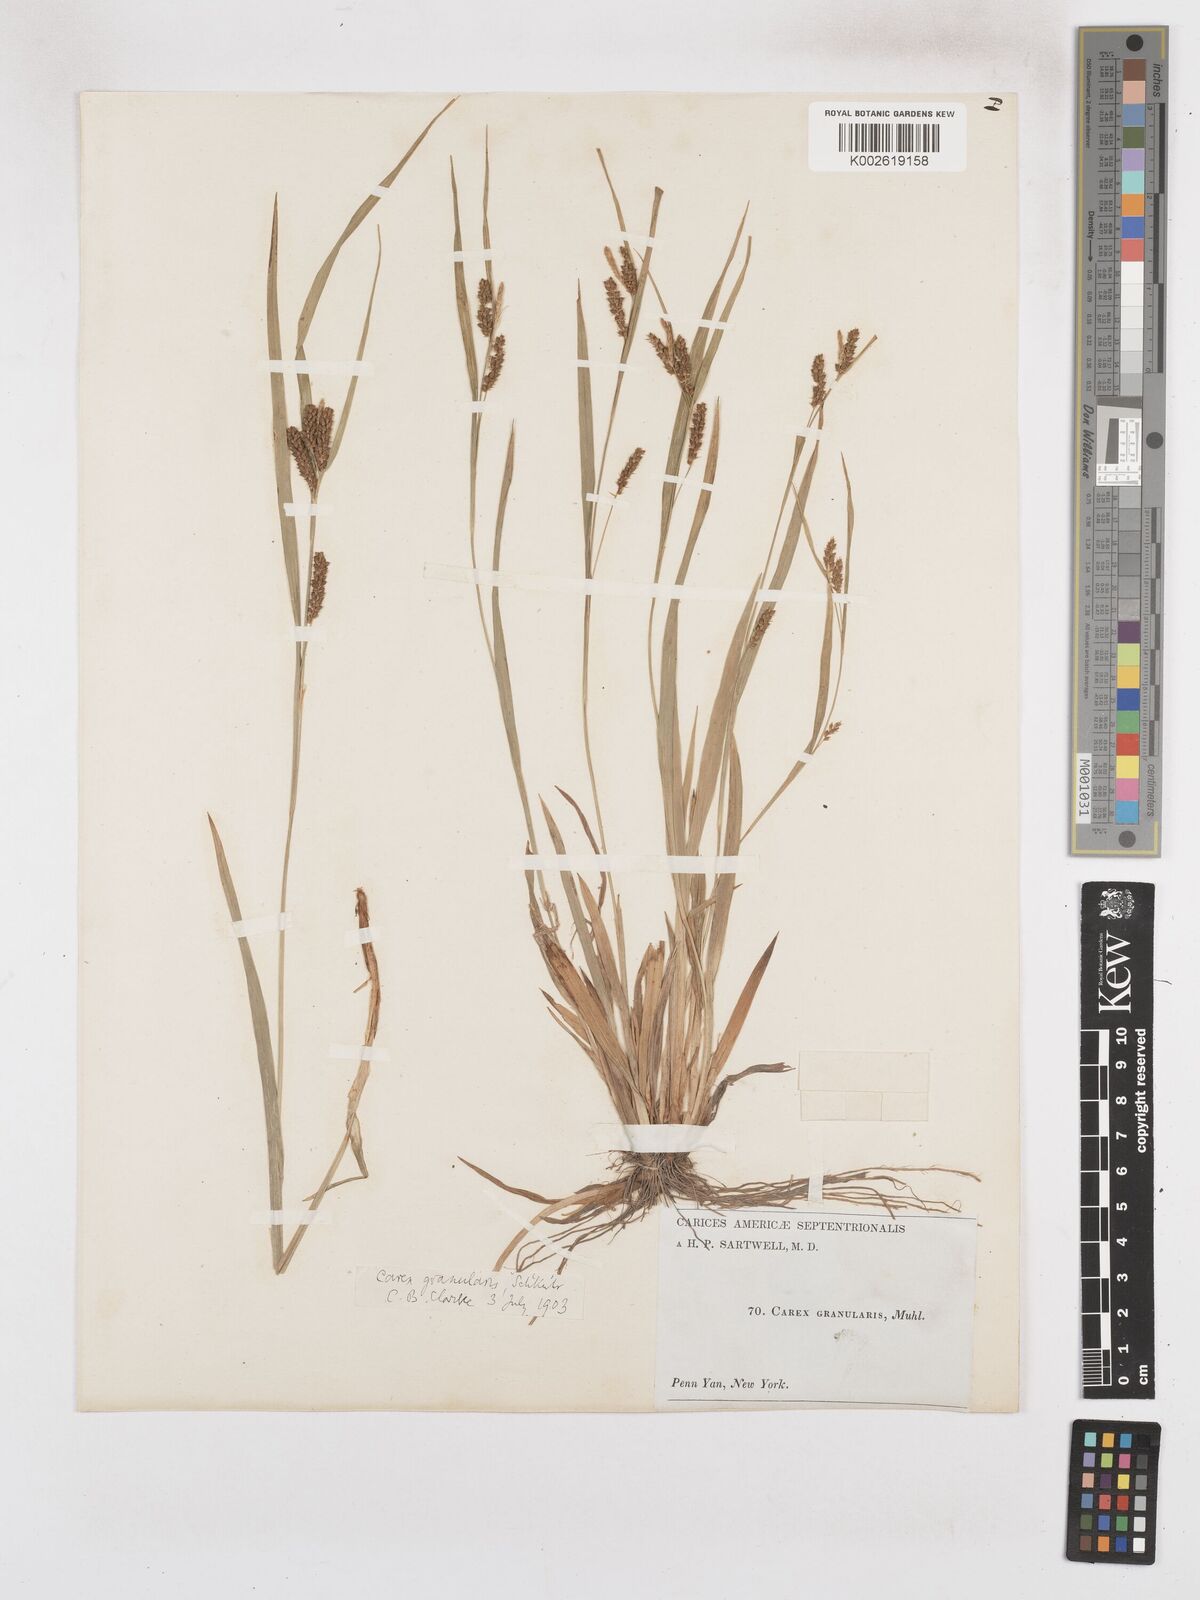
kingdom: Plantae
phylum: Tracheophyta
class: Liliopsida
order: Poales
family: Cyperaceae
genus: Carex
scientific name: Carex granularis
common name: Granular sedge
